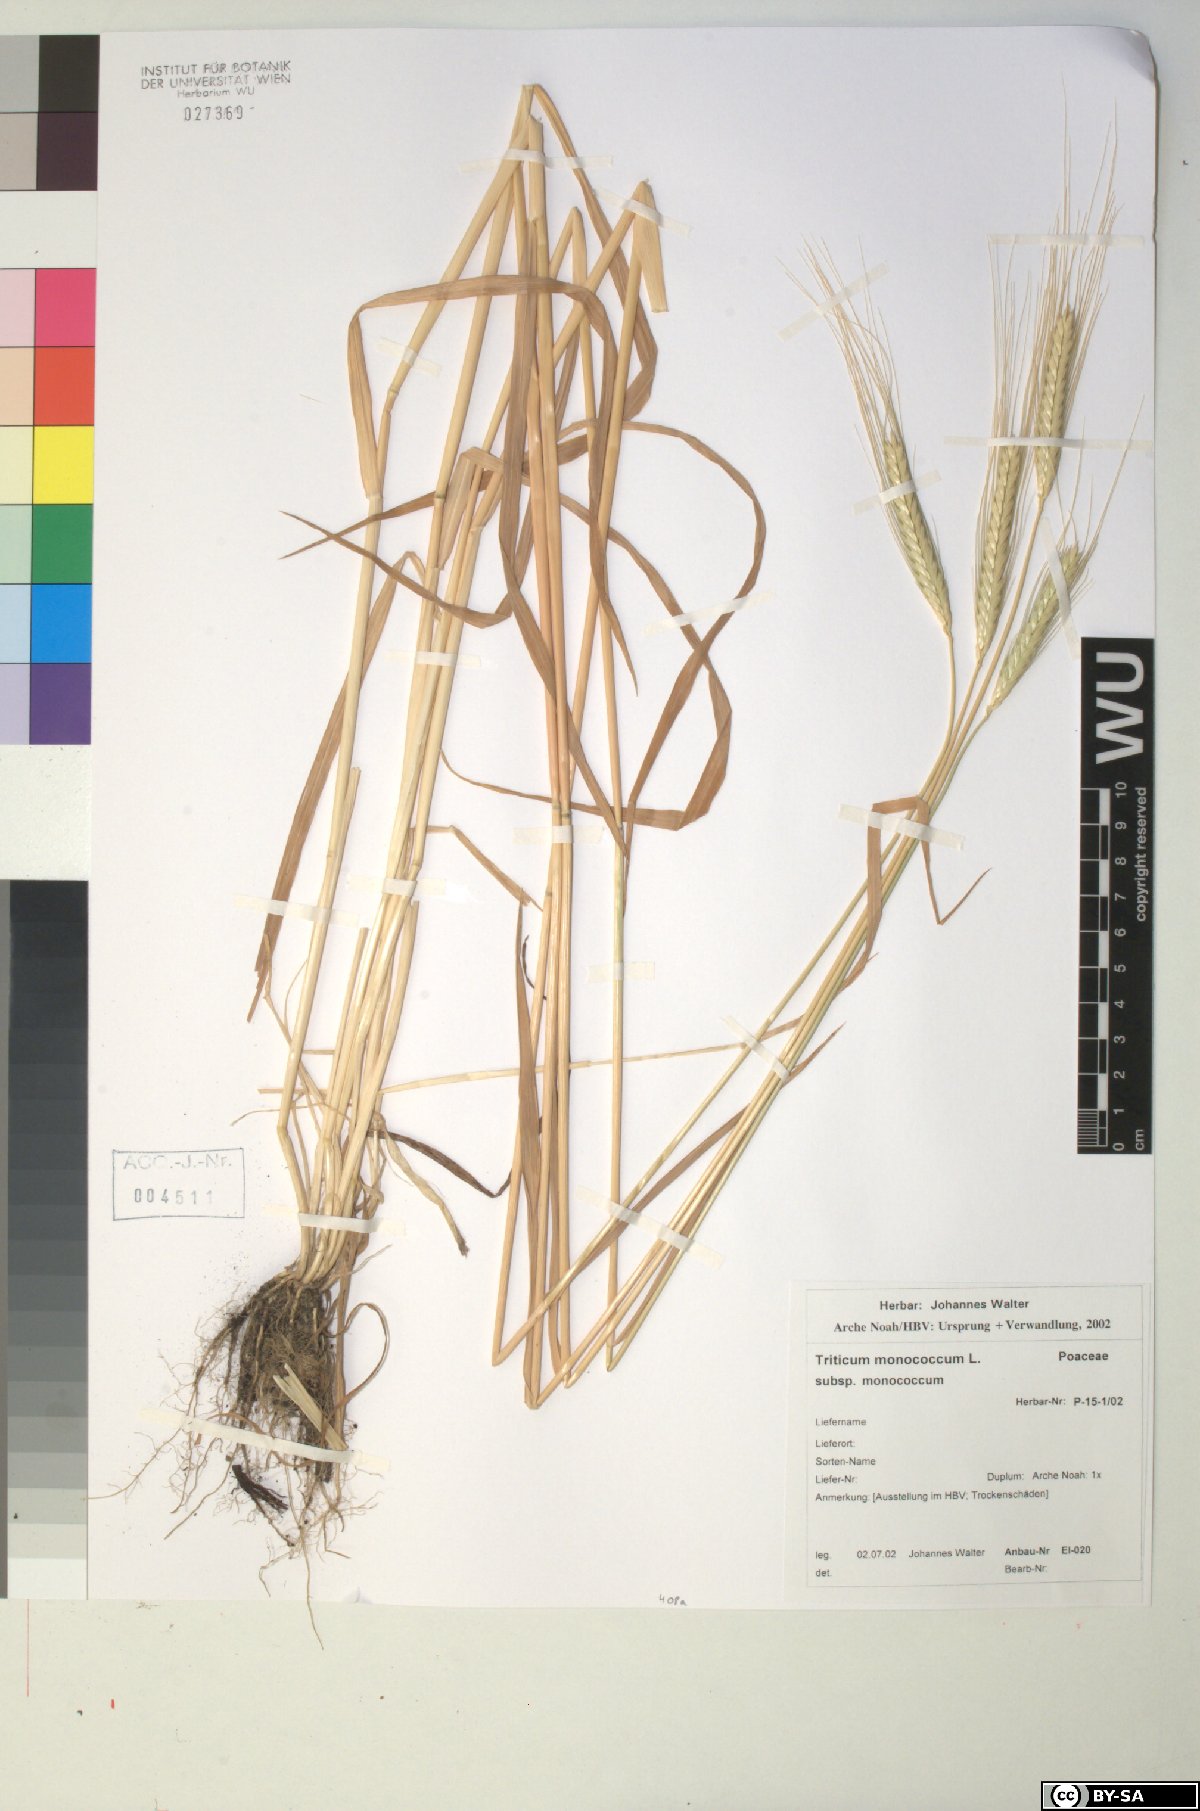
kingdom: Plantae
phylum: Tracheophyta
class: Liliopsida
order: Poales
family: Poaceae
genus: Triticum
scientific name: Triticum monococcum
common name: Einkorn
